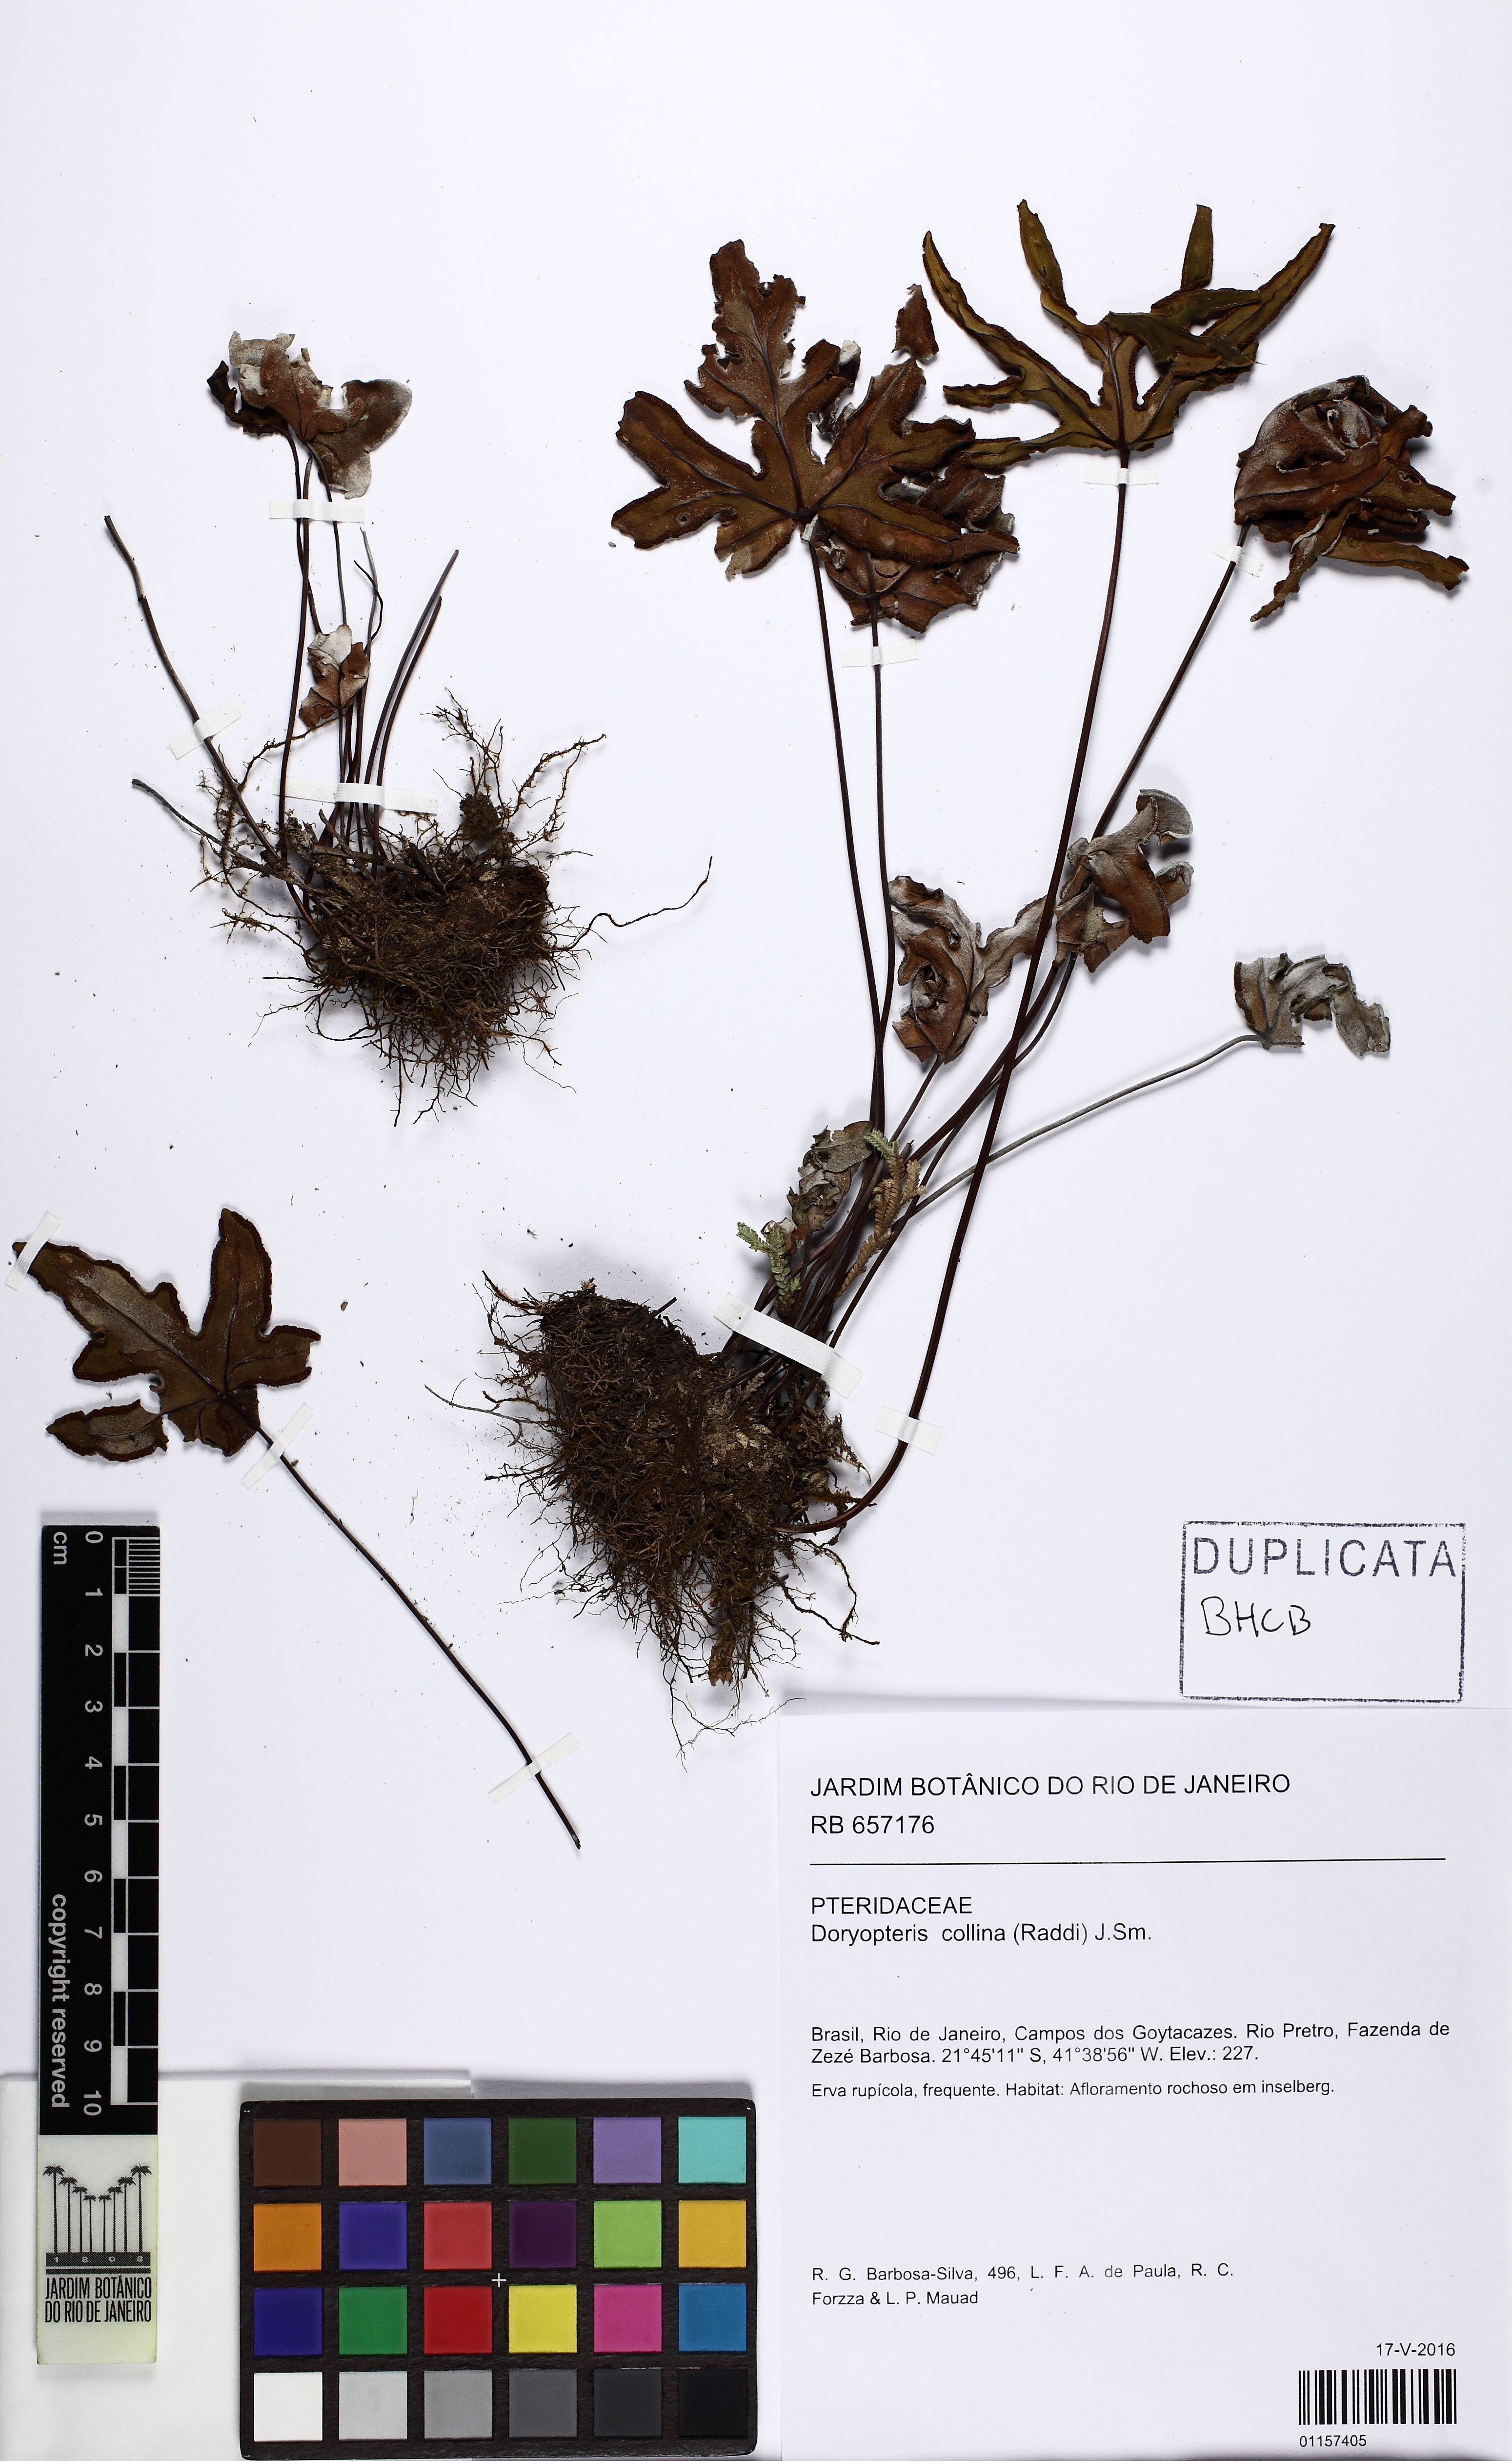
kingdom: Plantae
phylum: Tracheophyta
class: Polypodiopsida
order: Polypodiales
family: Pteridaceae
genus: Doryopteris
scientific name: Doryopteris collina
